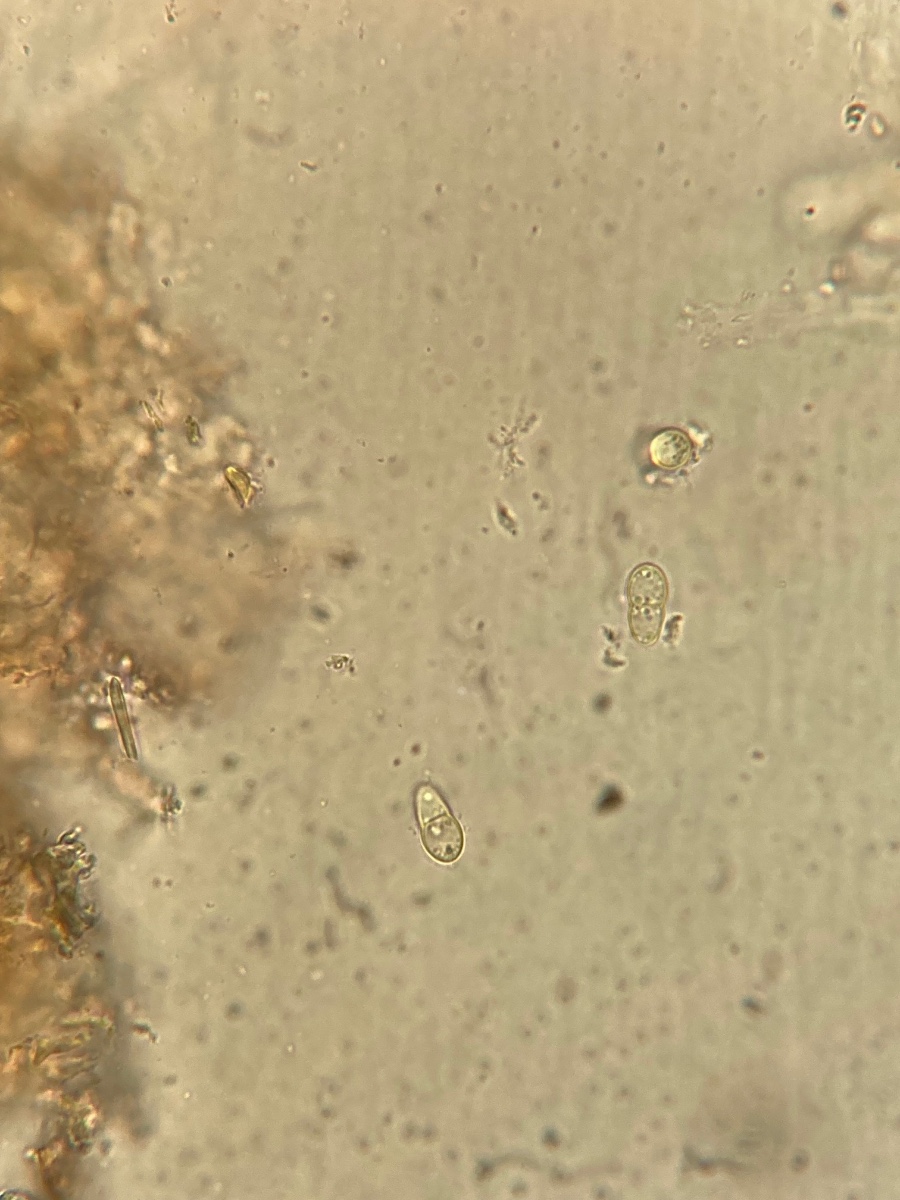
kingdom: Fungi
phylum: Ascomycota
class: Dothideomycetes
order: Venturiales
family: Venturiaceae
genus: Venturia
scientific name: Venturia maculiformis
